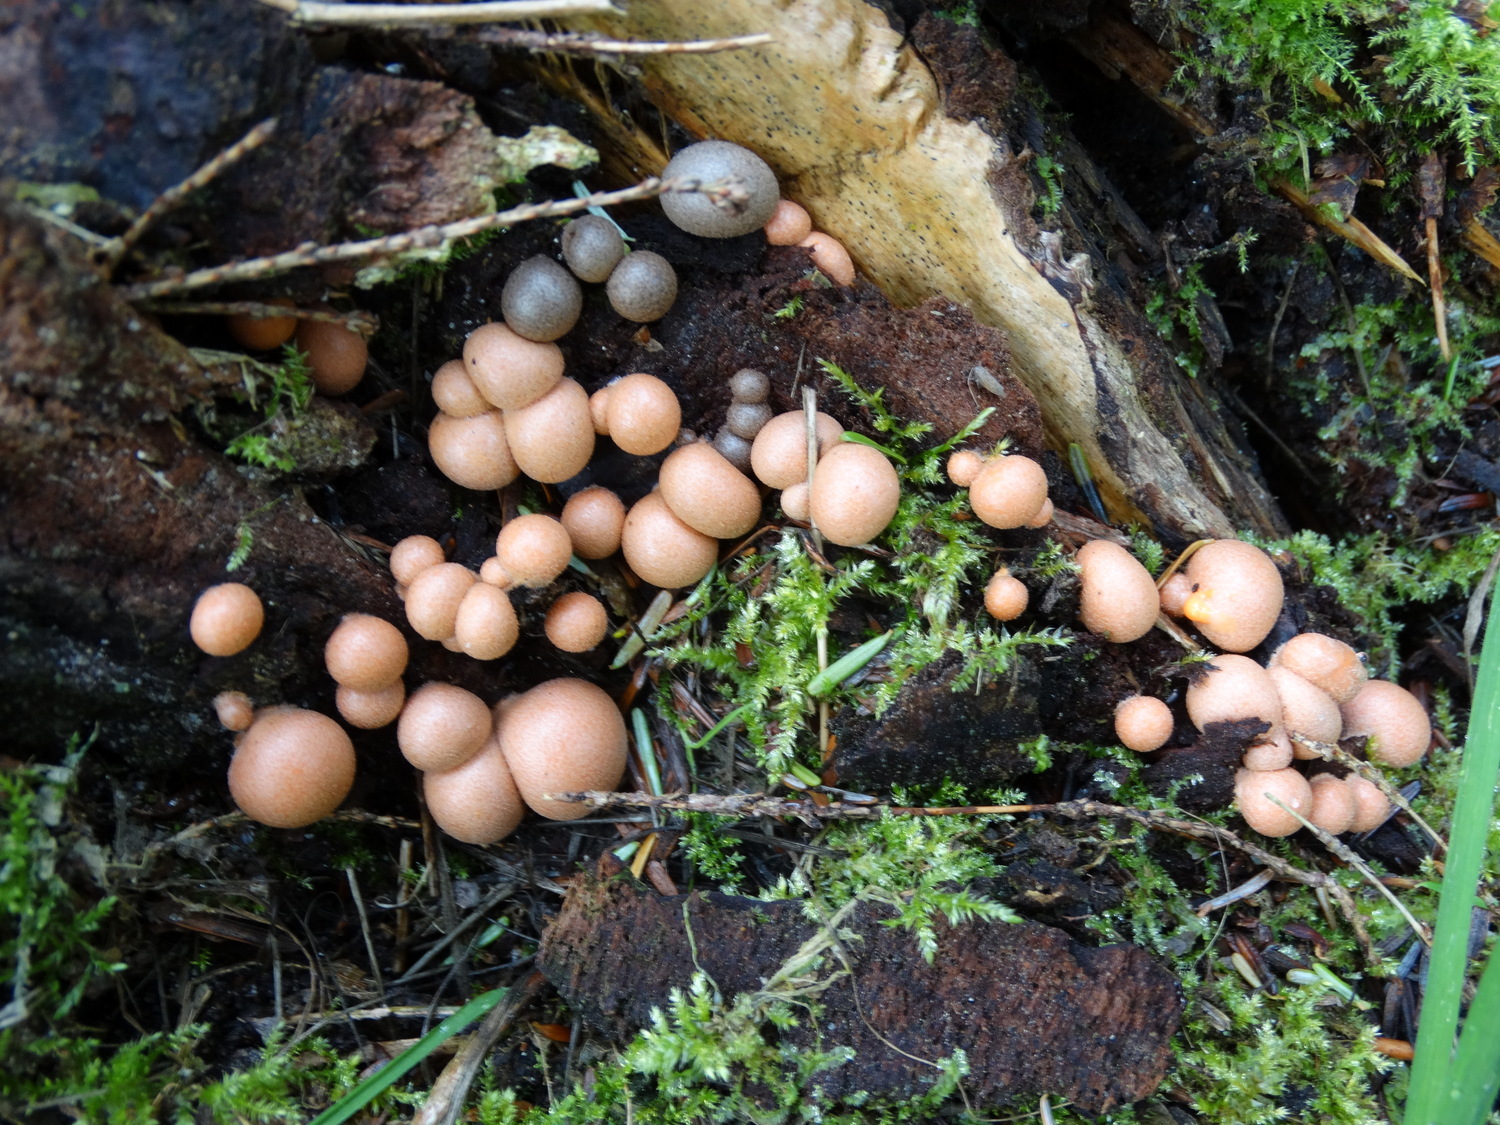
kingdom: Protozoa
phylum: Mycetozoa
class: Myxomycetes
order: Cribrariales
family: Tubiferaceae
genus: Lycogala
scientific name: Lycogala epidendrum
